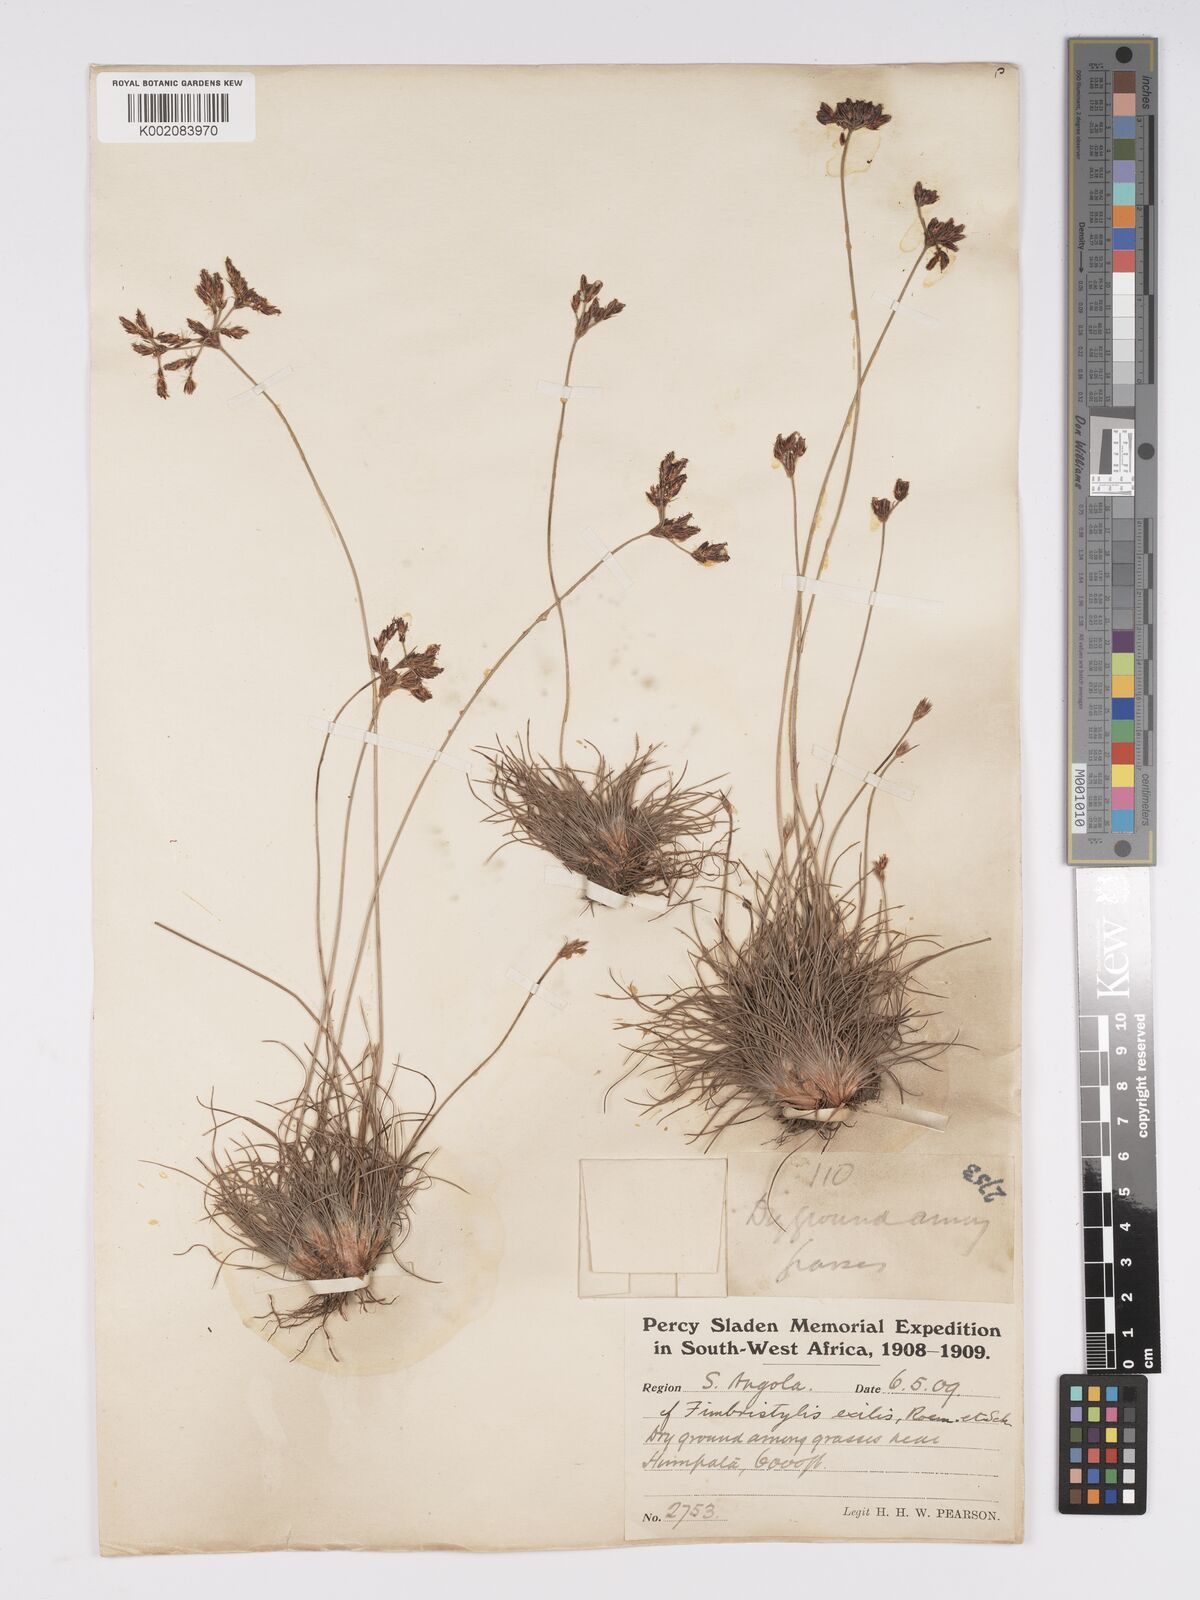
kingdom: Plantae
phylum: Tracheophyta
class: Liliopsida
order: Poales
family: Cyperaceae
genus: Bulbostylis
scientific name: Bulbostylis hispidula
